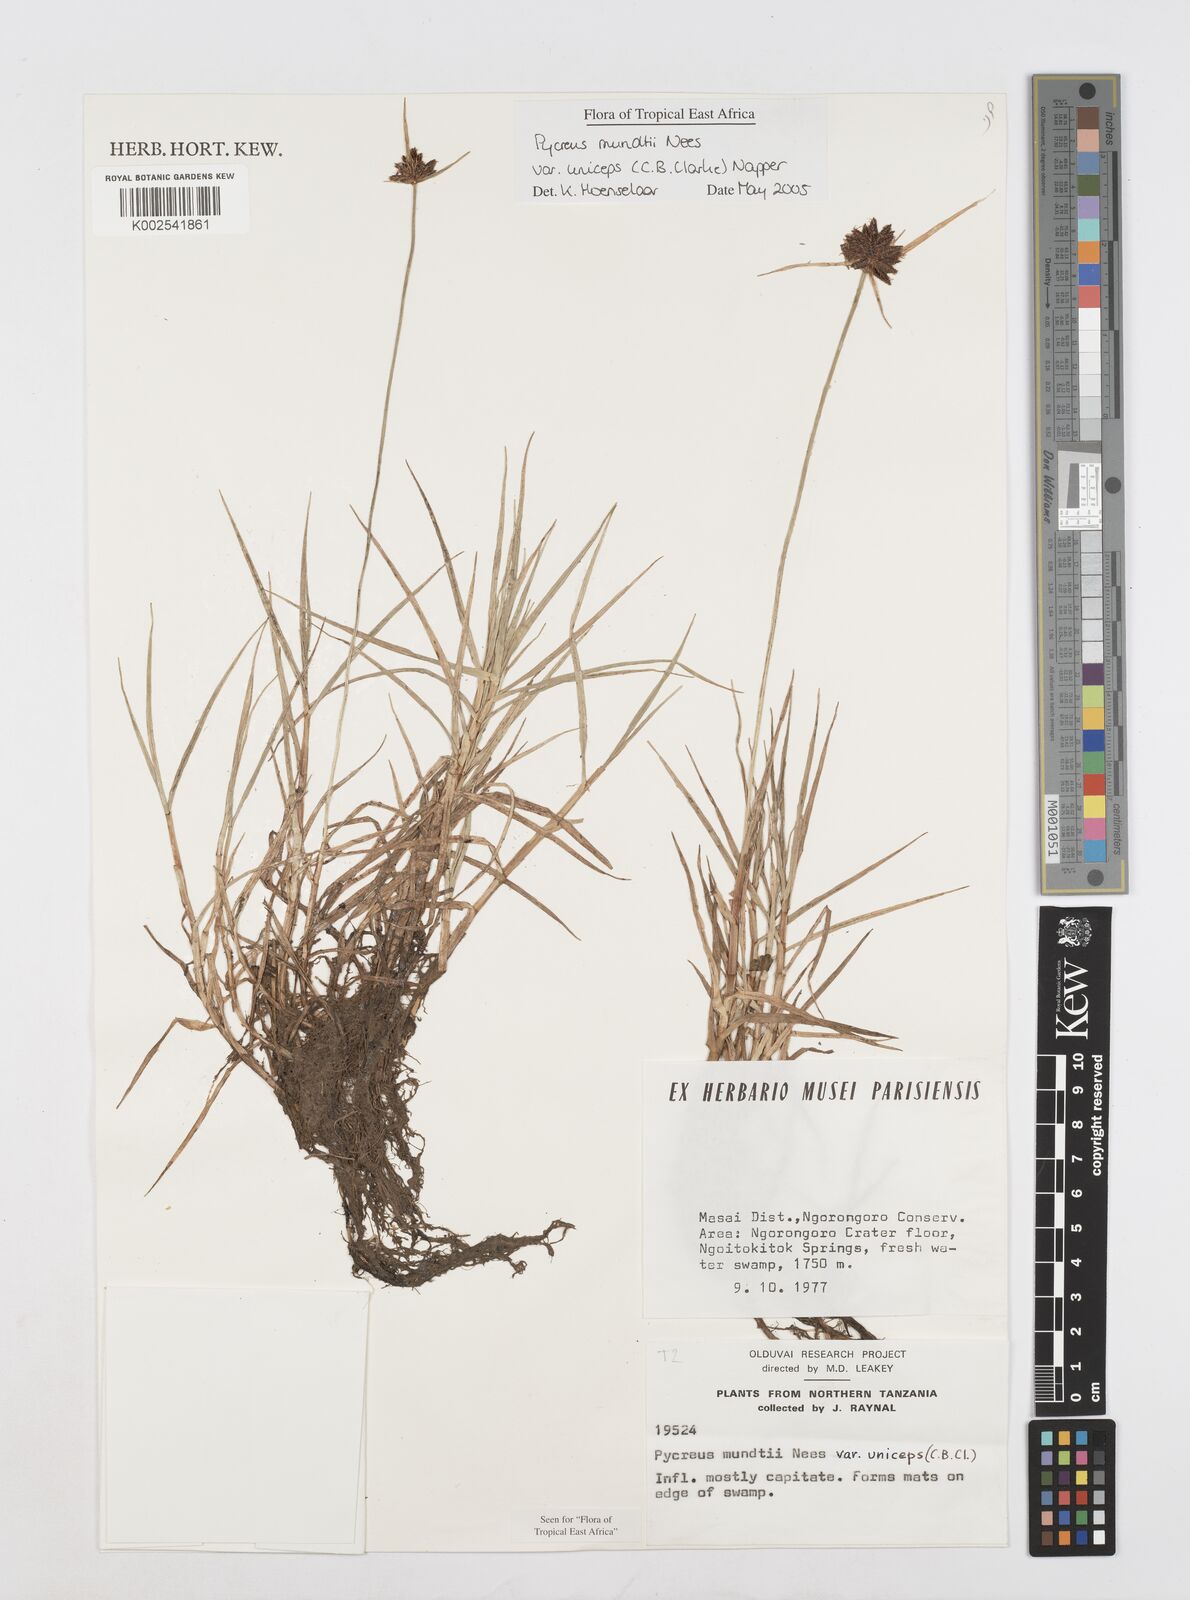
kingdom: Plantae
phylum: Tracheophyta
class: Liliopsida
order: Poales
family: Cyperaceae
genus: Cyperus
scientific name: Cyperus mundii
